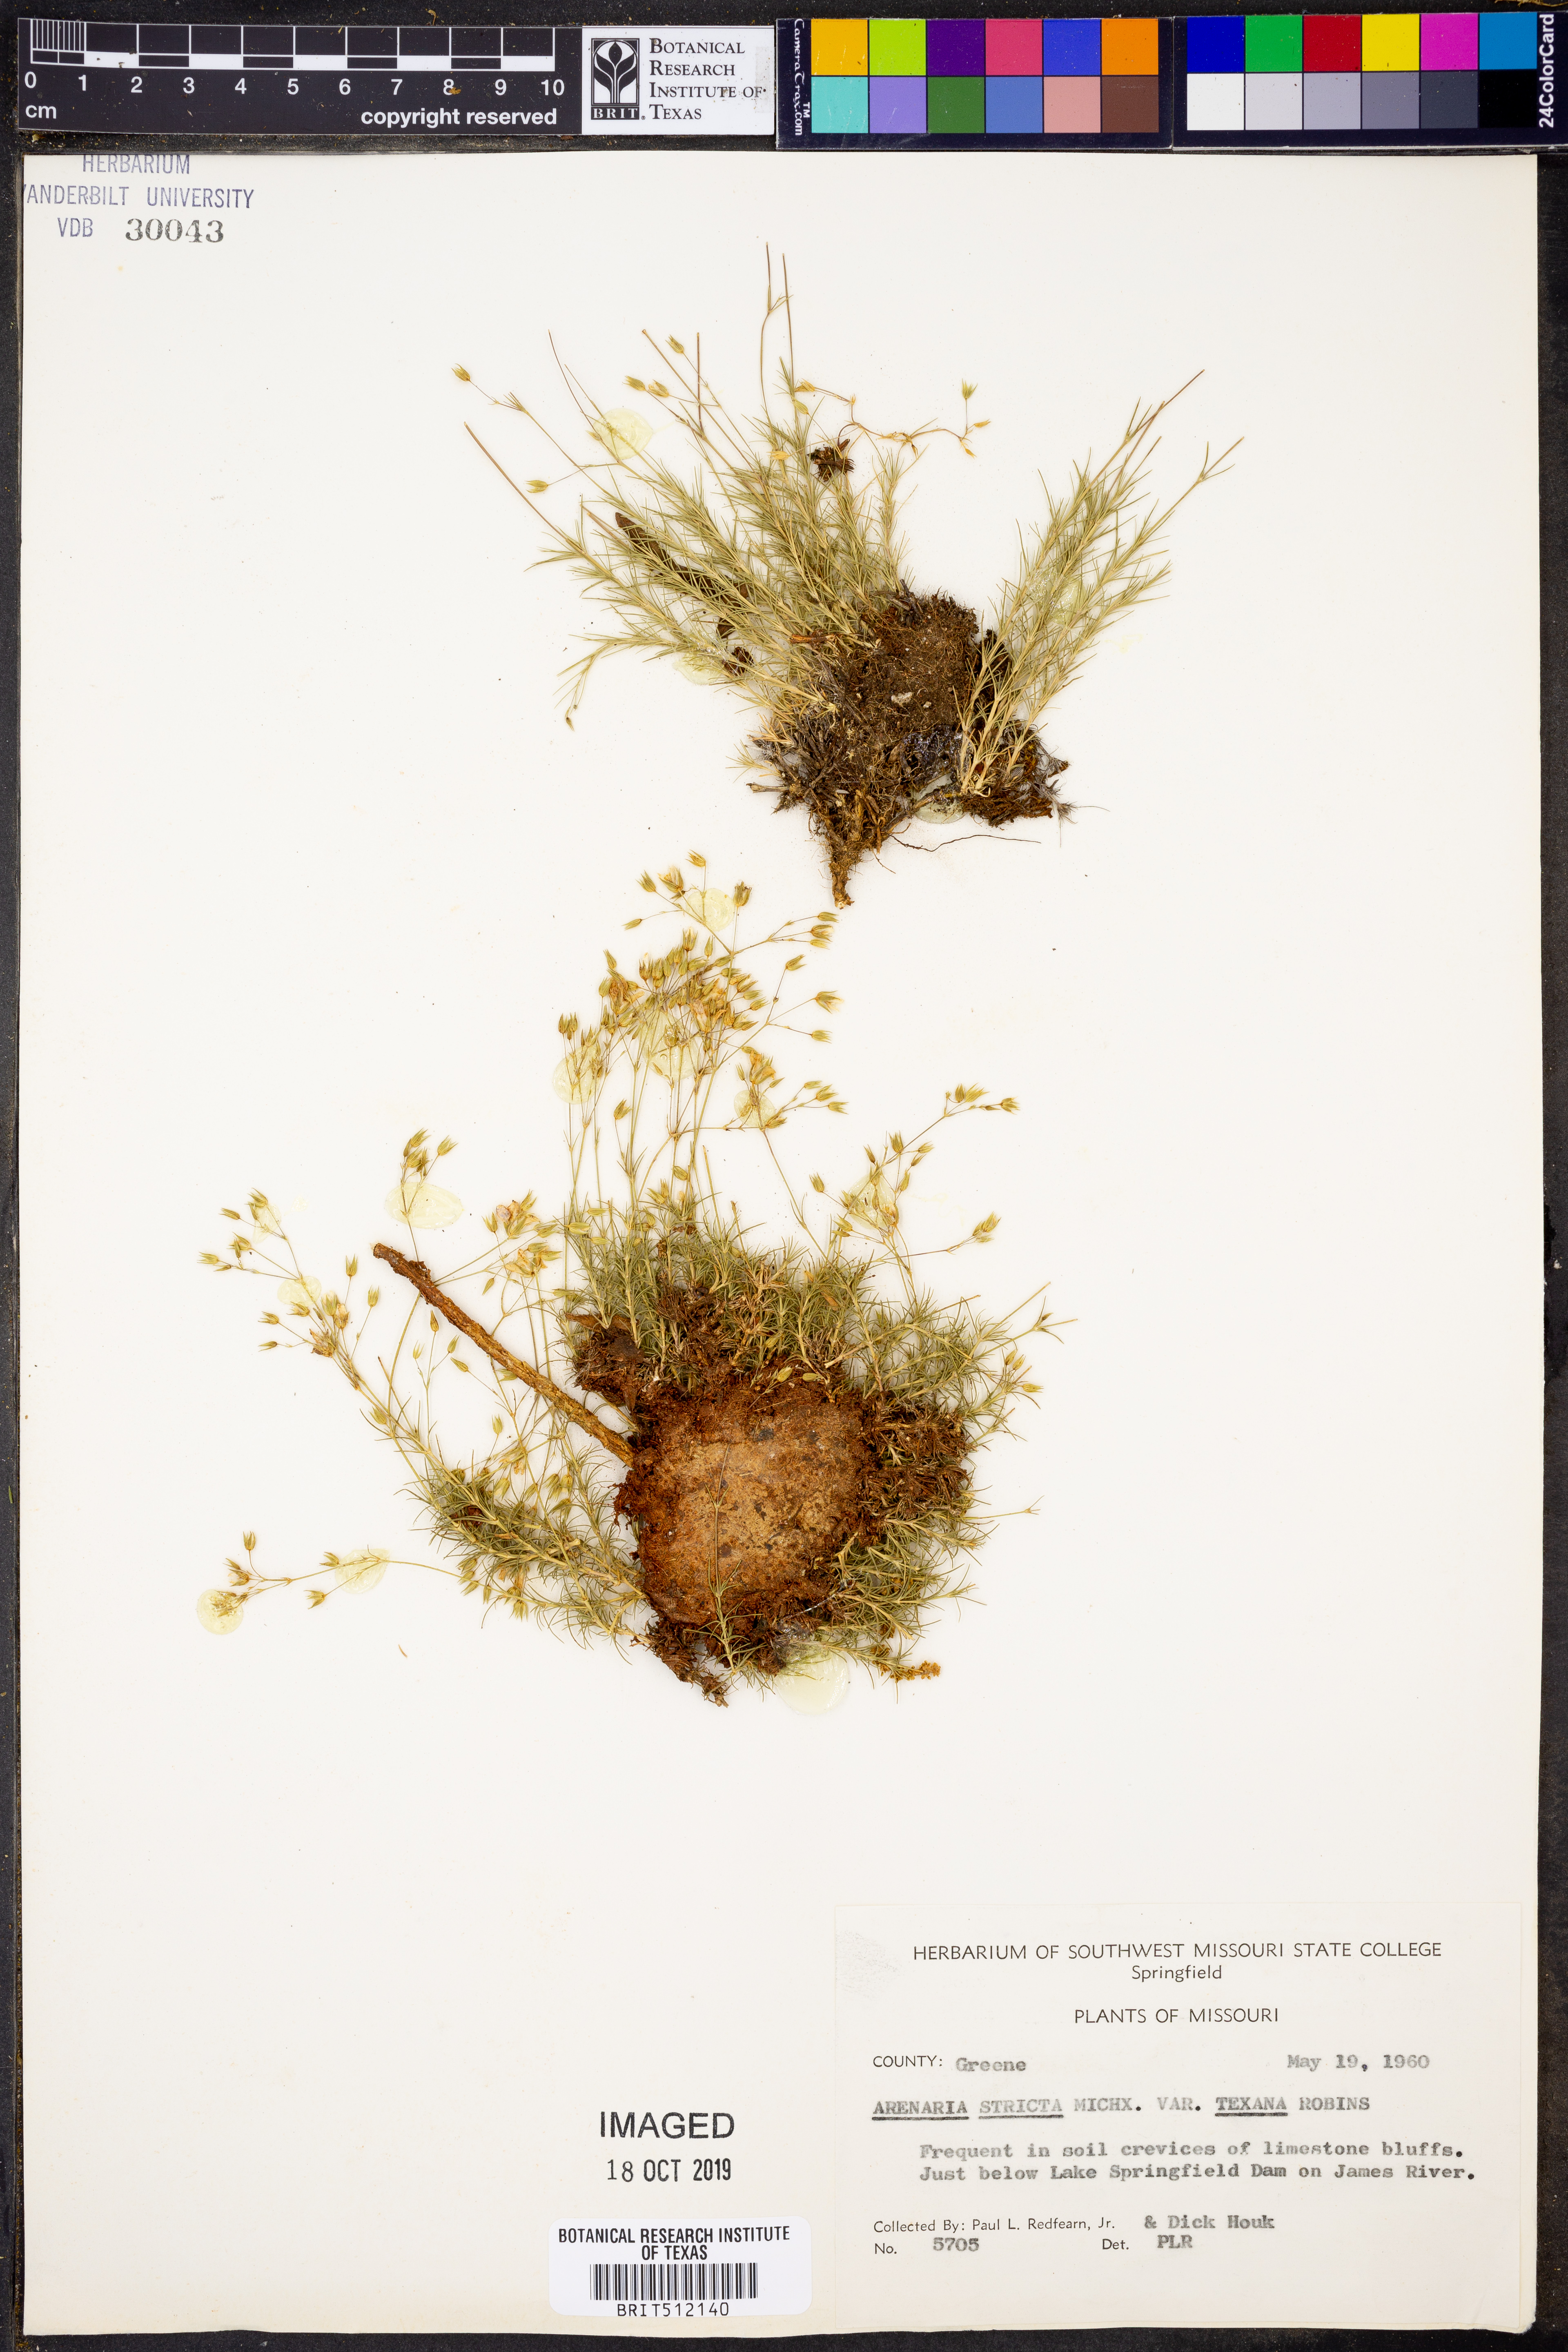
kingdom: Plantae
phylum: Tracheophyta
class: Magnoliopsida
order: Caryophyllales
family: Caryophyllaceae
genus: Sabulina
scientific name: Sabulina michauxii
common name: Michaux's stitchwort
